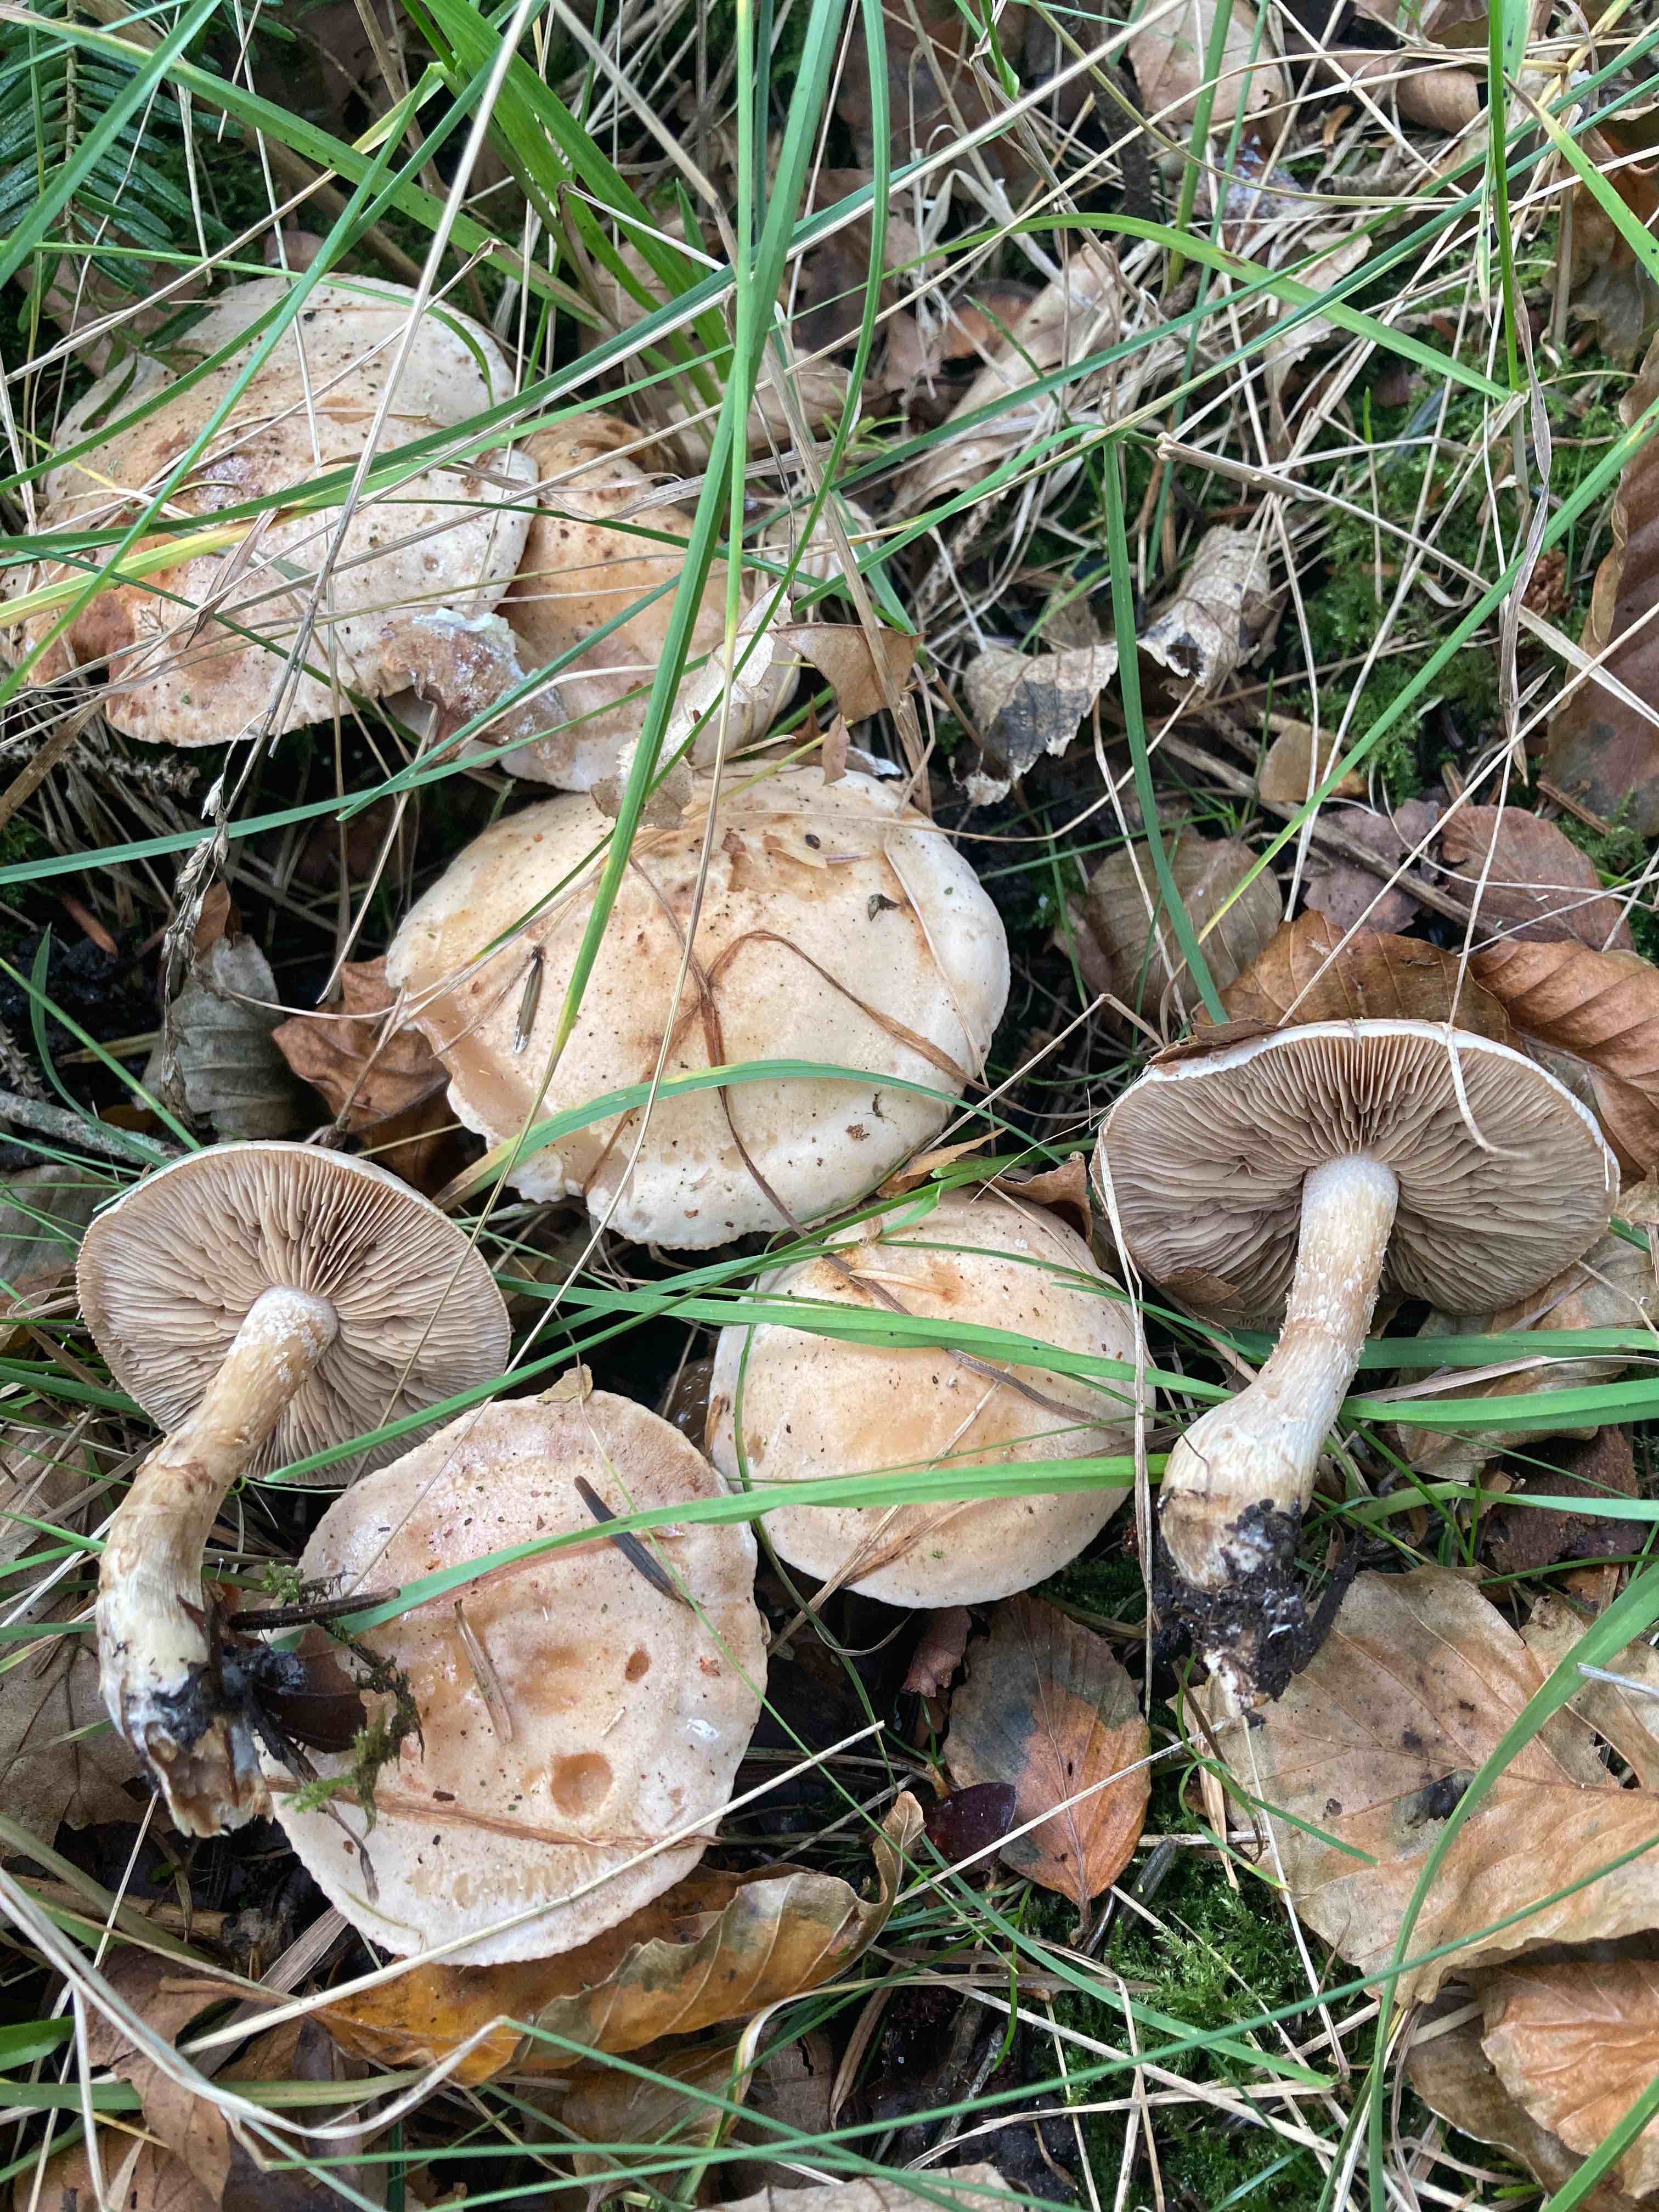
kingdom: Fungi
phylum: Basidiomycota
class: Agaricomycetes
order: Agaricales
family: Hymenogastraceae
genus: Hebeloma
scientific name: Hebeloma laterinum
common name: kakao-tåreblad
